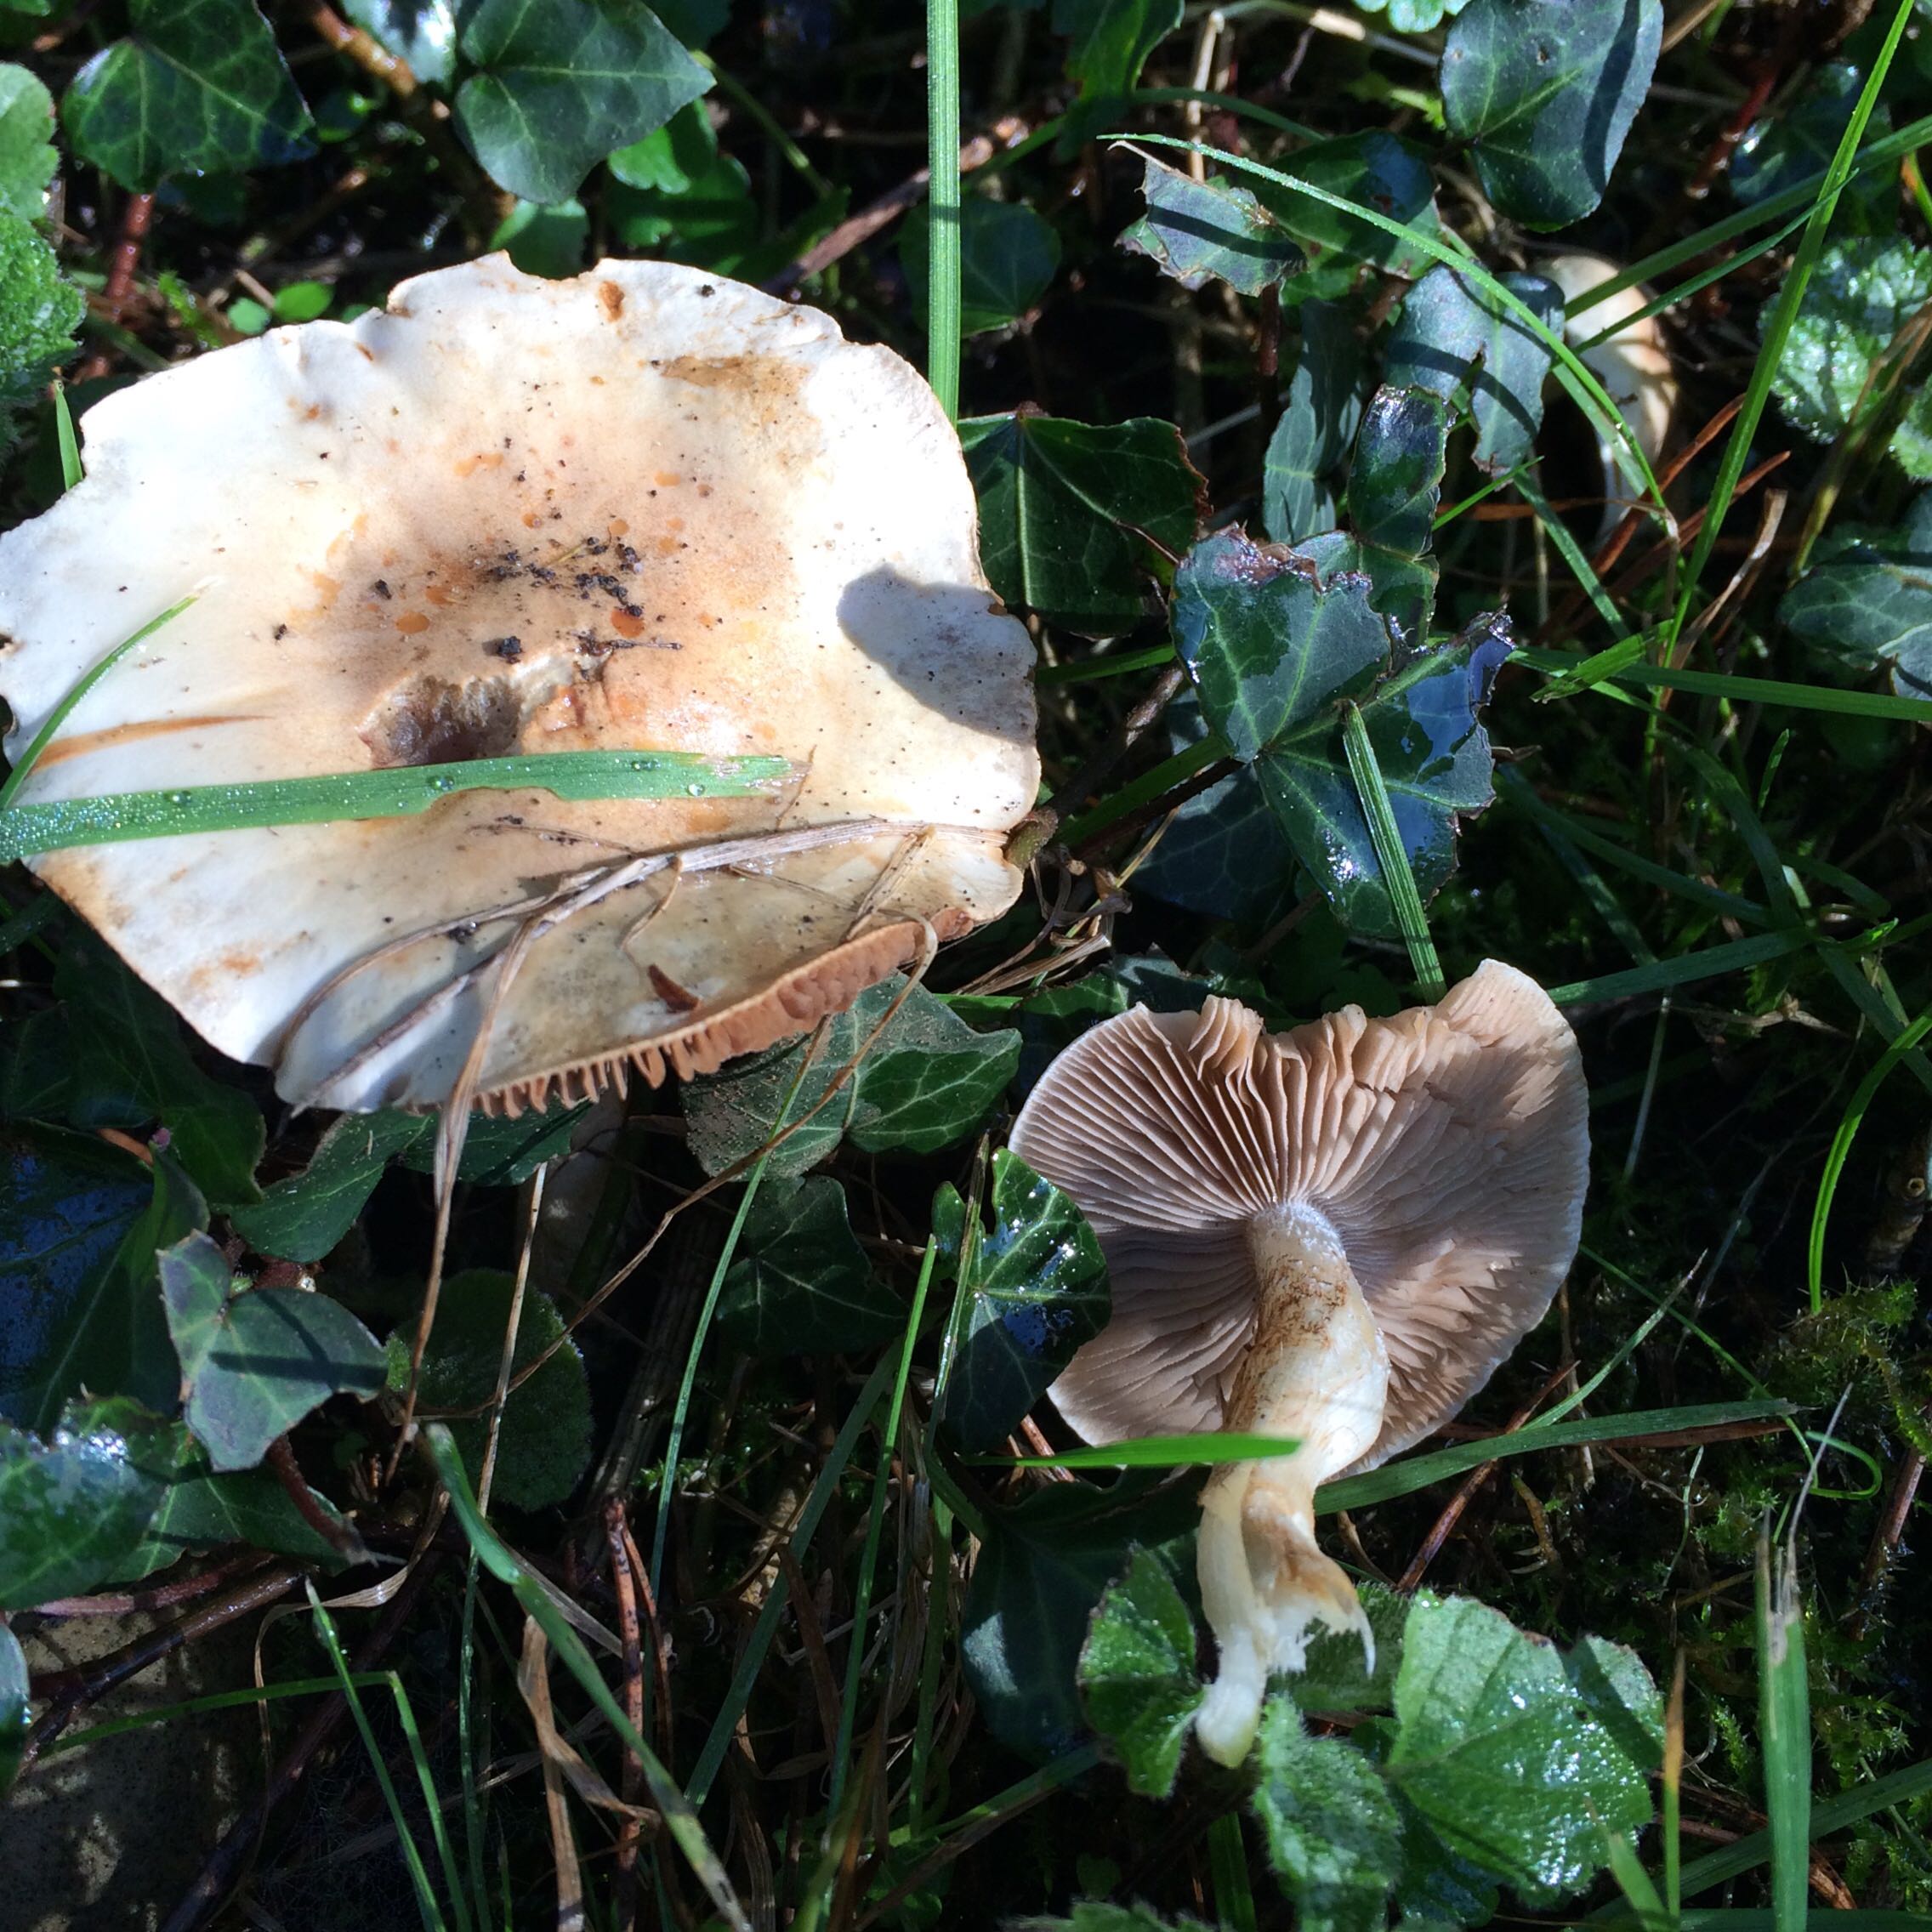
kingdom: Fungi
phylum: Basidiomycota
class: Agaricomycetes
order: Agaricales
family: Hymenogastraceae
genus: Hebeloma
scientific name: Hebeloma
